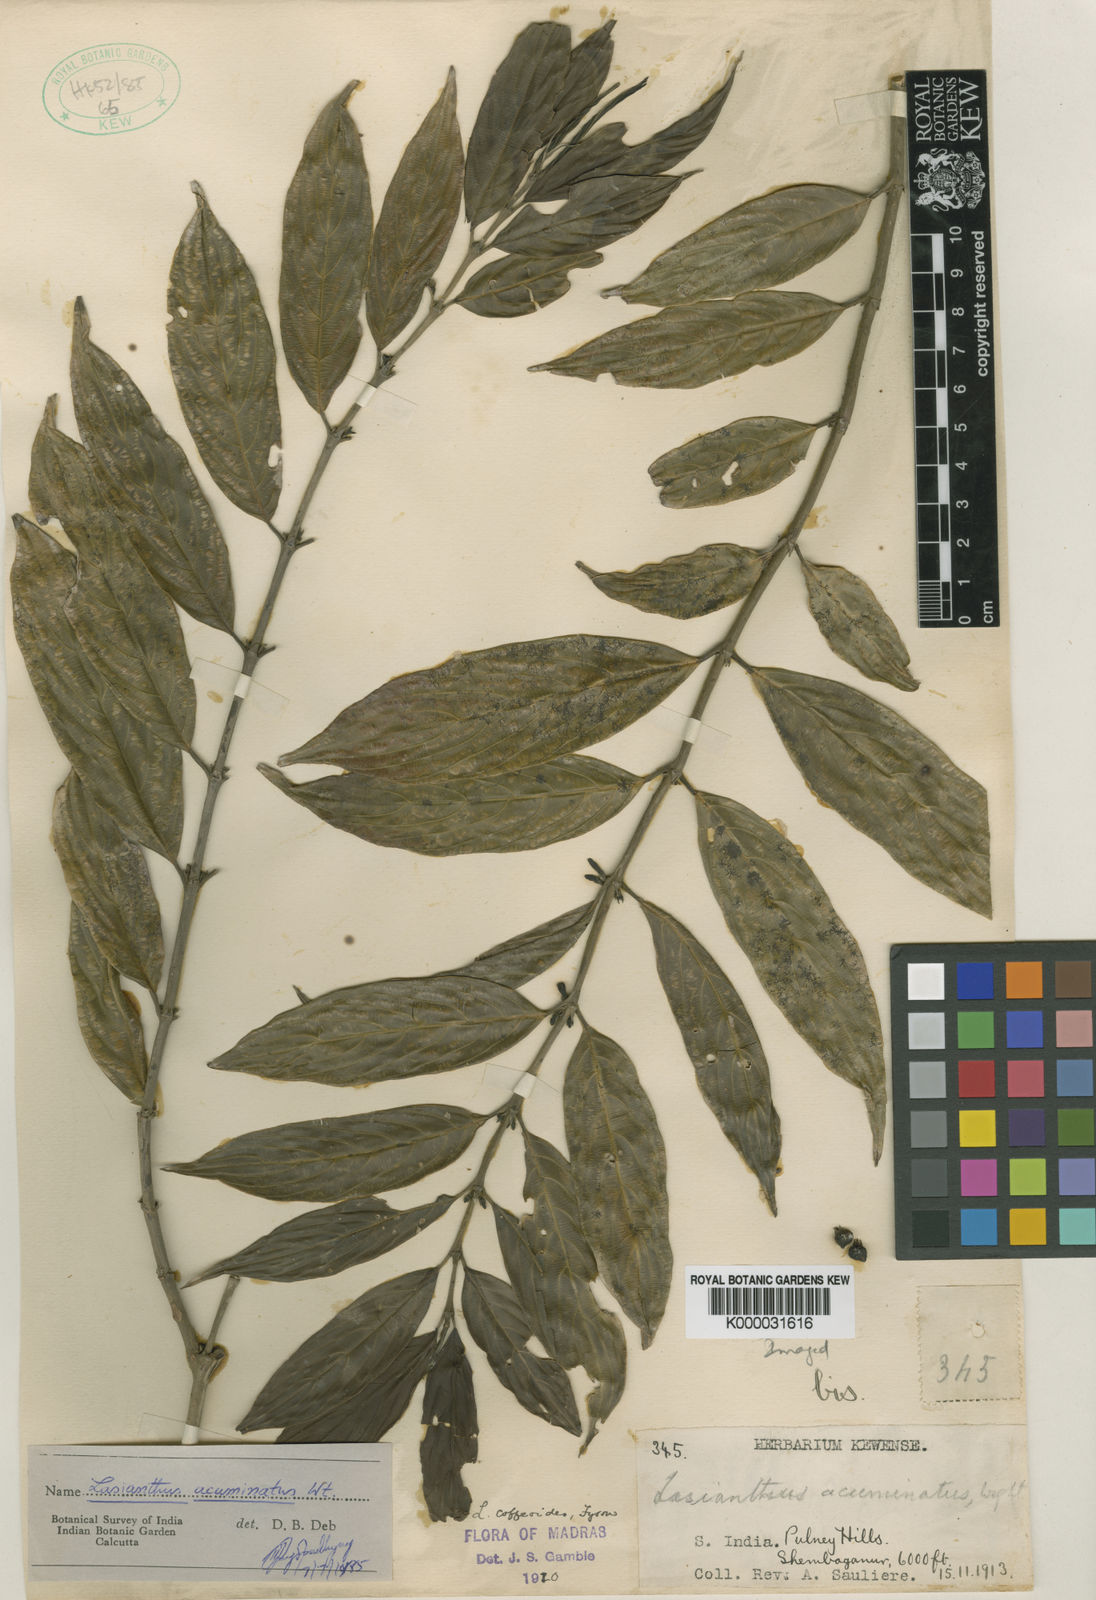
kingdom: Plantae
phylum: Tracheophyta
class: Magnoliopsida
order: Gentianales
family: Rubiaceae
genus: Lasianthus
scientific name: Lasianthus acuminatus
